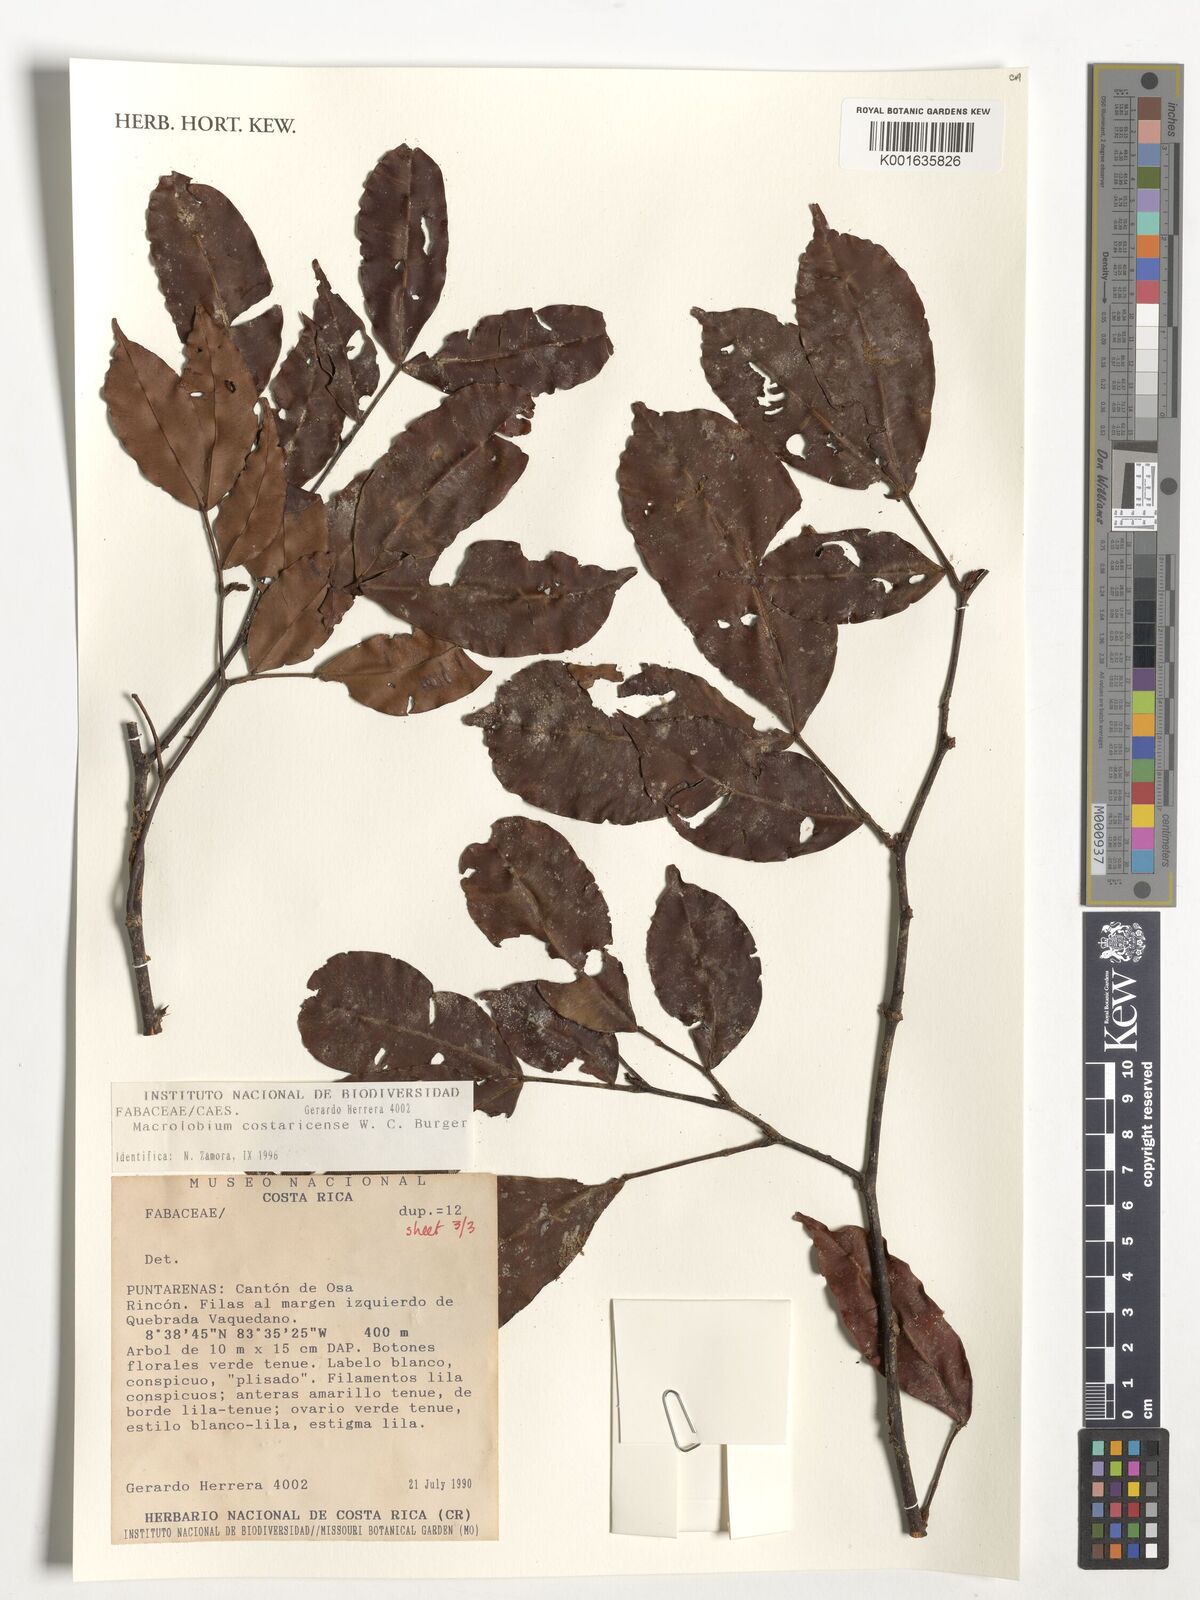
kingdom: Plantae
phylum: Tracheophyta
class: Magnoliopsida
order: Fabales
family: Fabaceae
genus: Macrolobium
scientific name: Macrolobium costaricense
